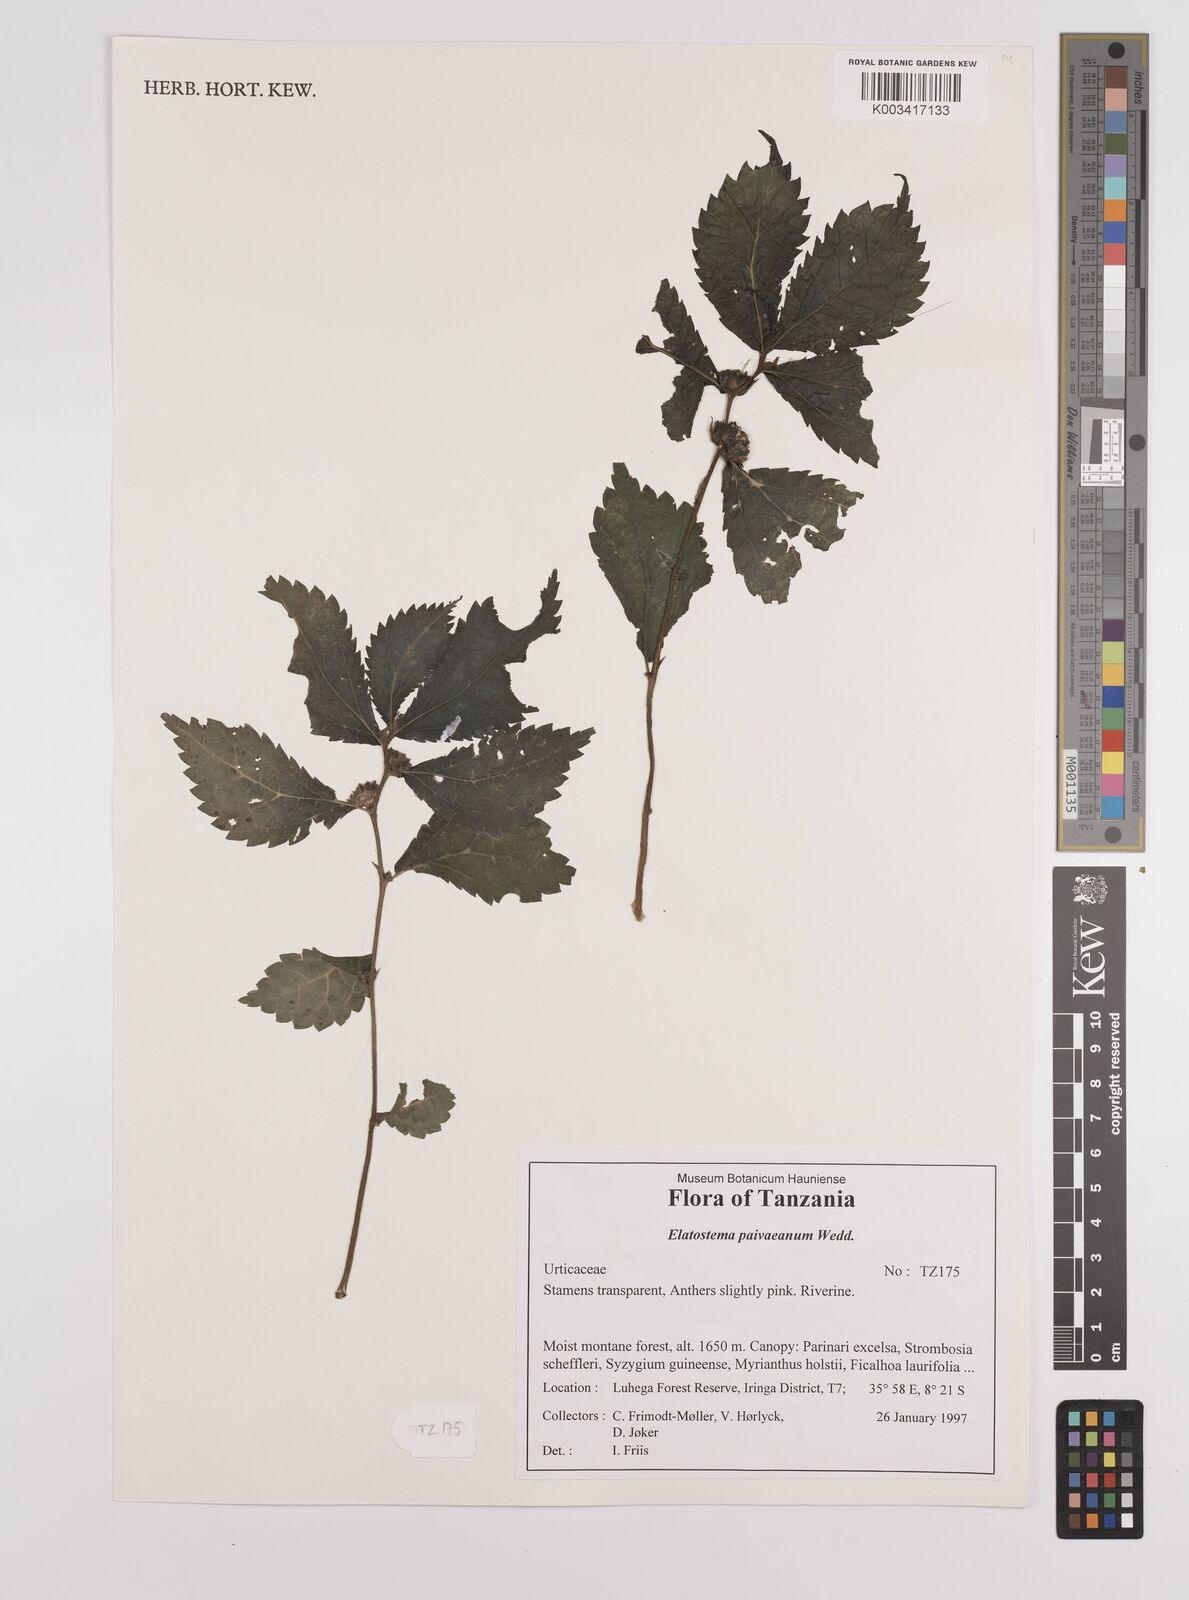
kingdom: Plantae
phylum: Tracheophyta
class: Magnoliopsida
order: Rosales
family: Urticaceae
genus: Elatostema
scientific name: Elatostema paivaeanum
